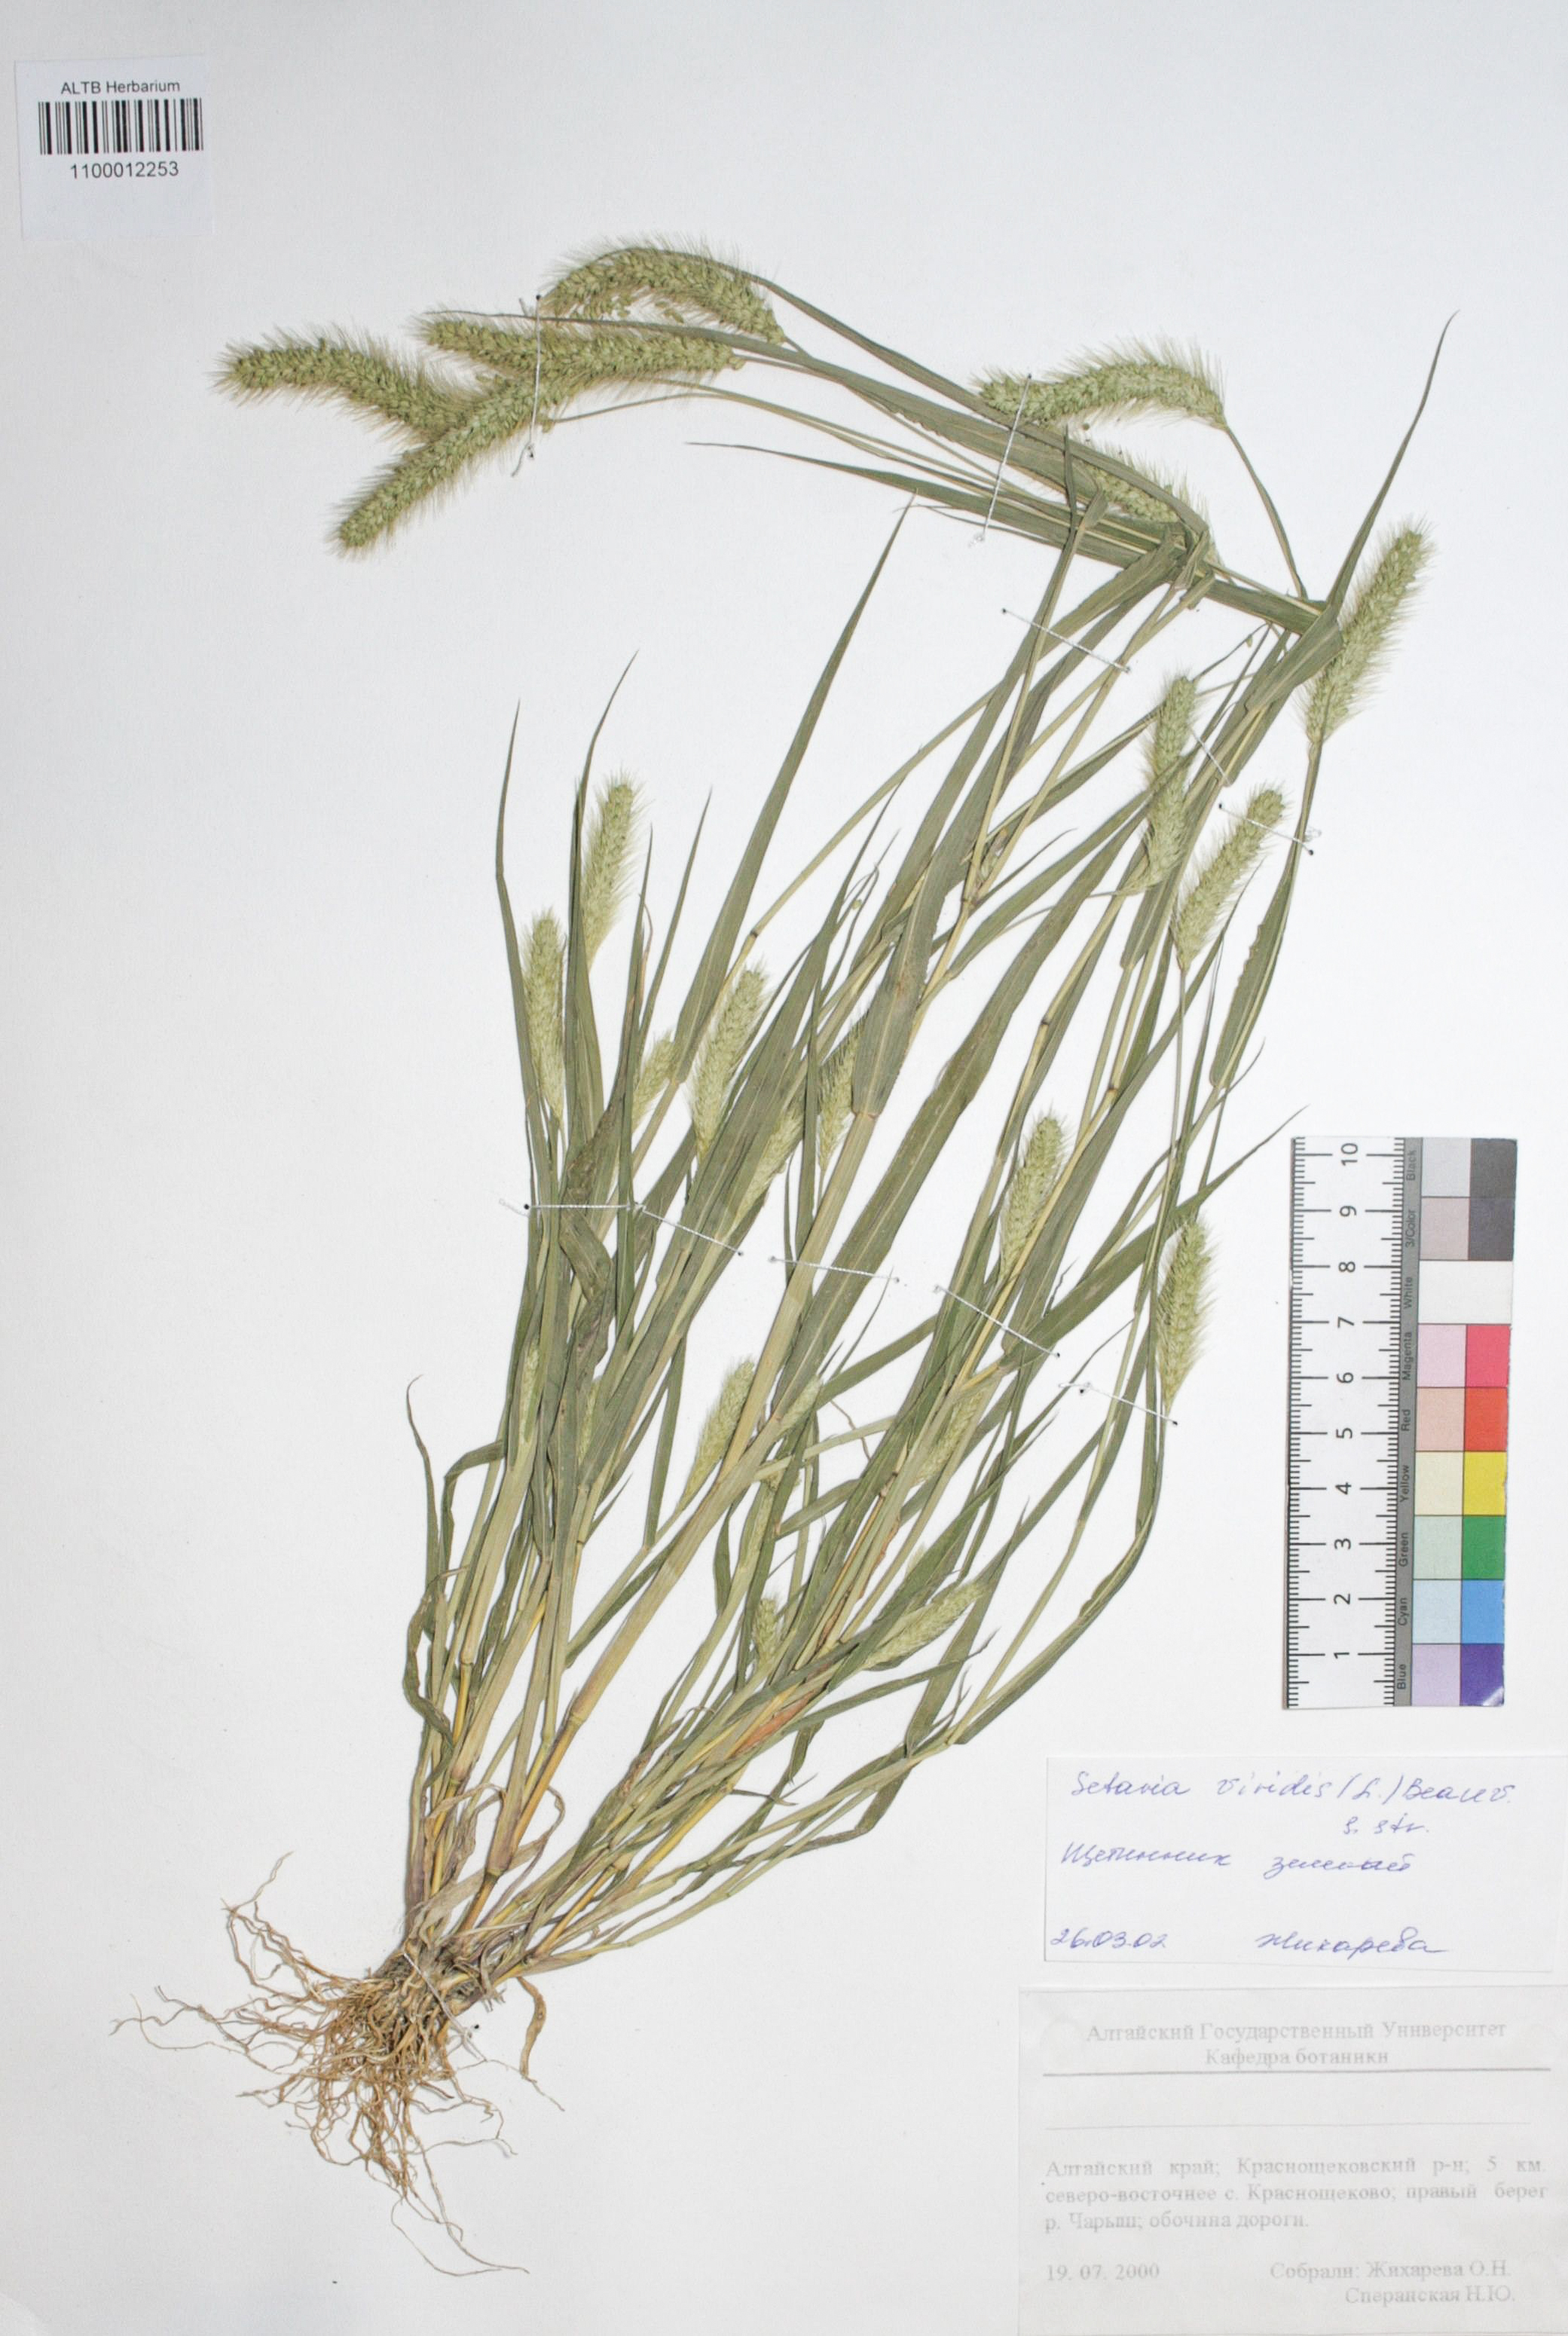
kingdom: Plantae
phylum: Tracheophyta
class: Liliopsida
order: Poales
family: Poaceae
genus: Setaria
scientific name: Setaria viridis
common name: Green bristlegrass
